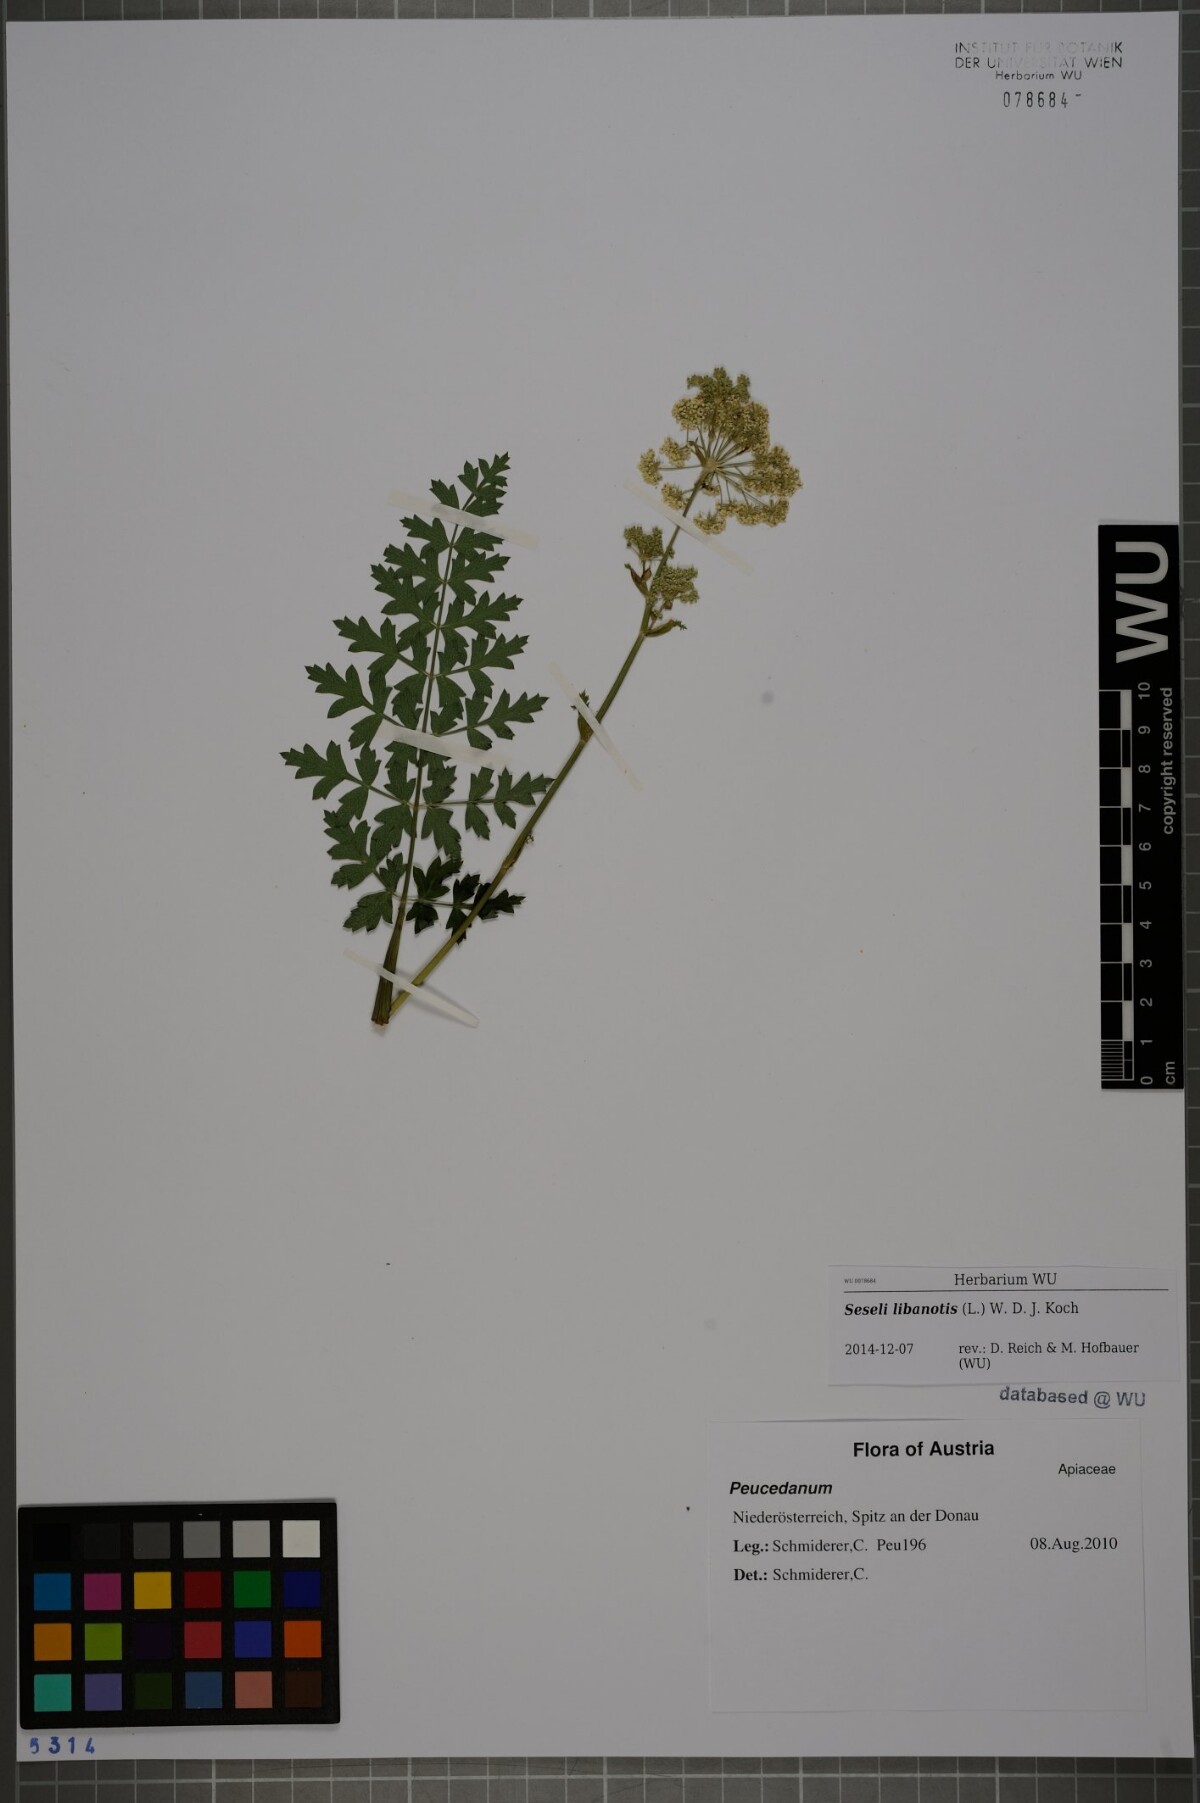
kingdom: Plantae
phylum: Tracheophyta
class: Magnoliopsida
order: Apiales
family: Apiaceae
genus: Seseli
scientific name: Seseli libanotis
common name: Mooncarrot
